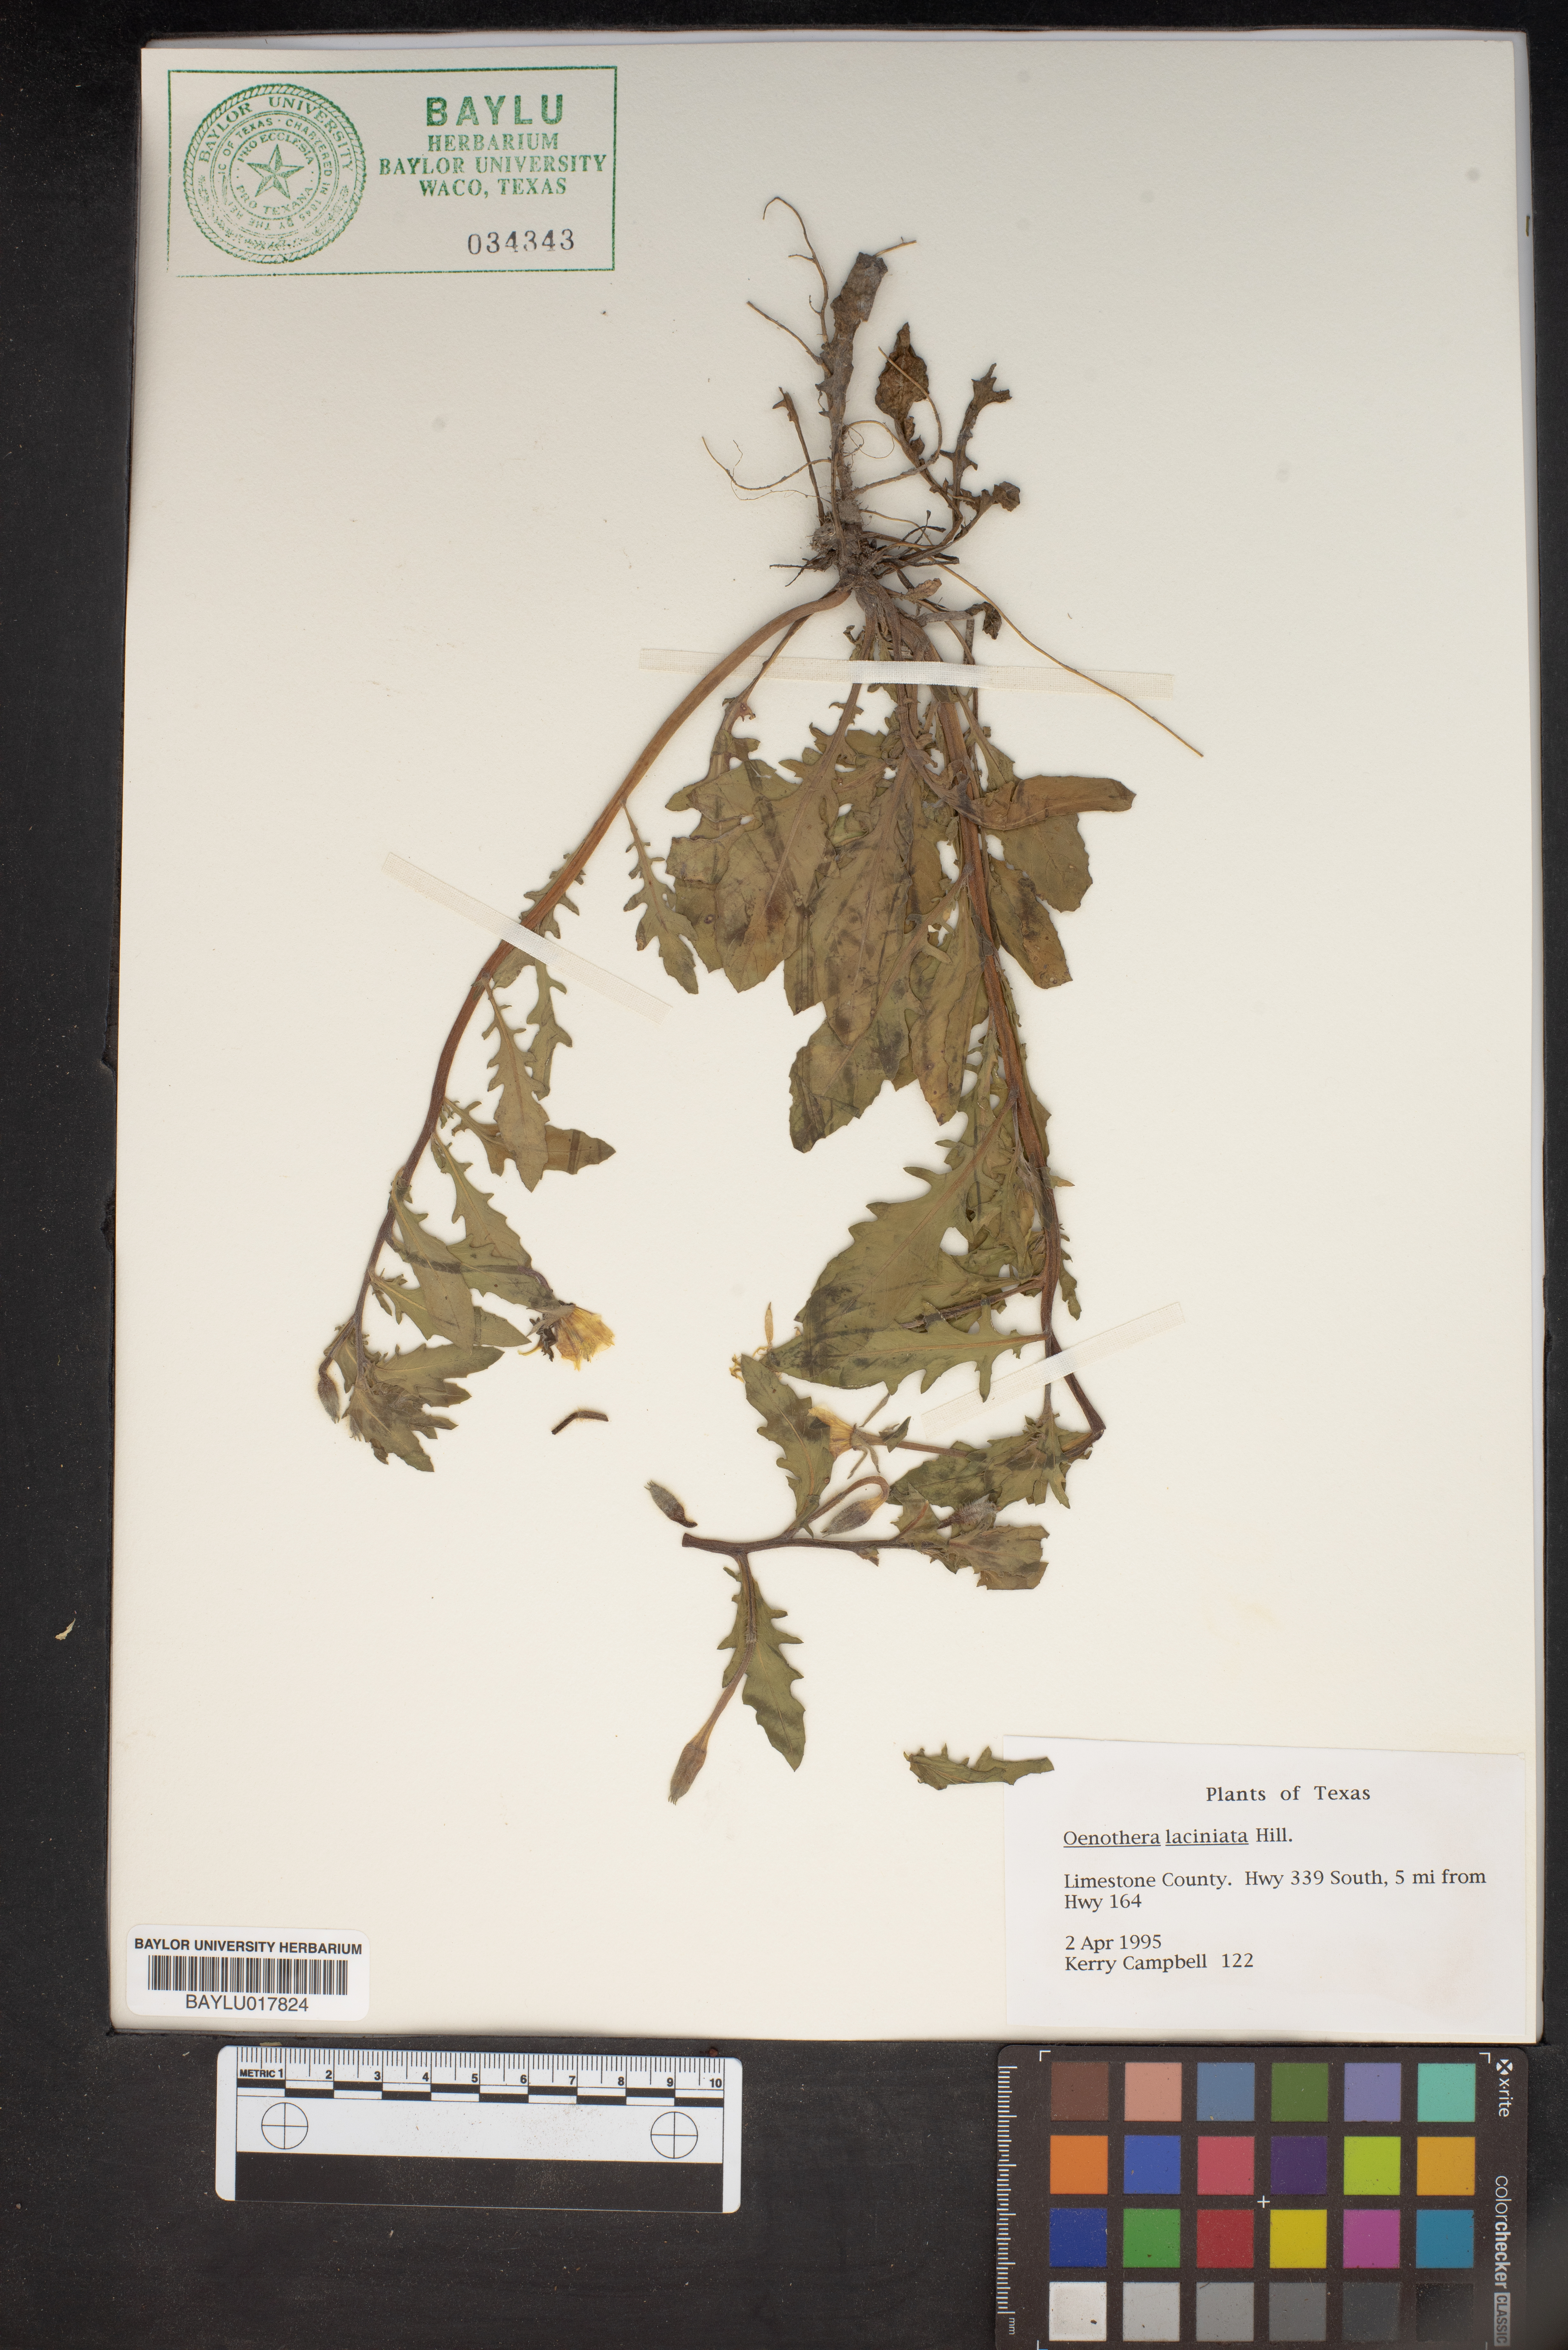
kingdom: Plantae
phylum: Tracheophyta
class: Magnoliopsida
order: Myrtales
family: Onagraceae
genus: Oenothera
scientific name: Oenothera laciniata
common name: Cut-leaved evening-primrose
